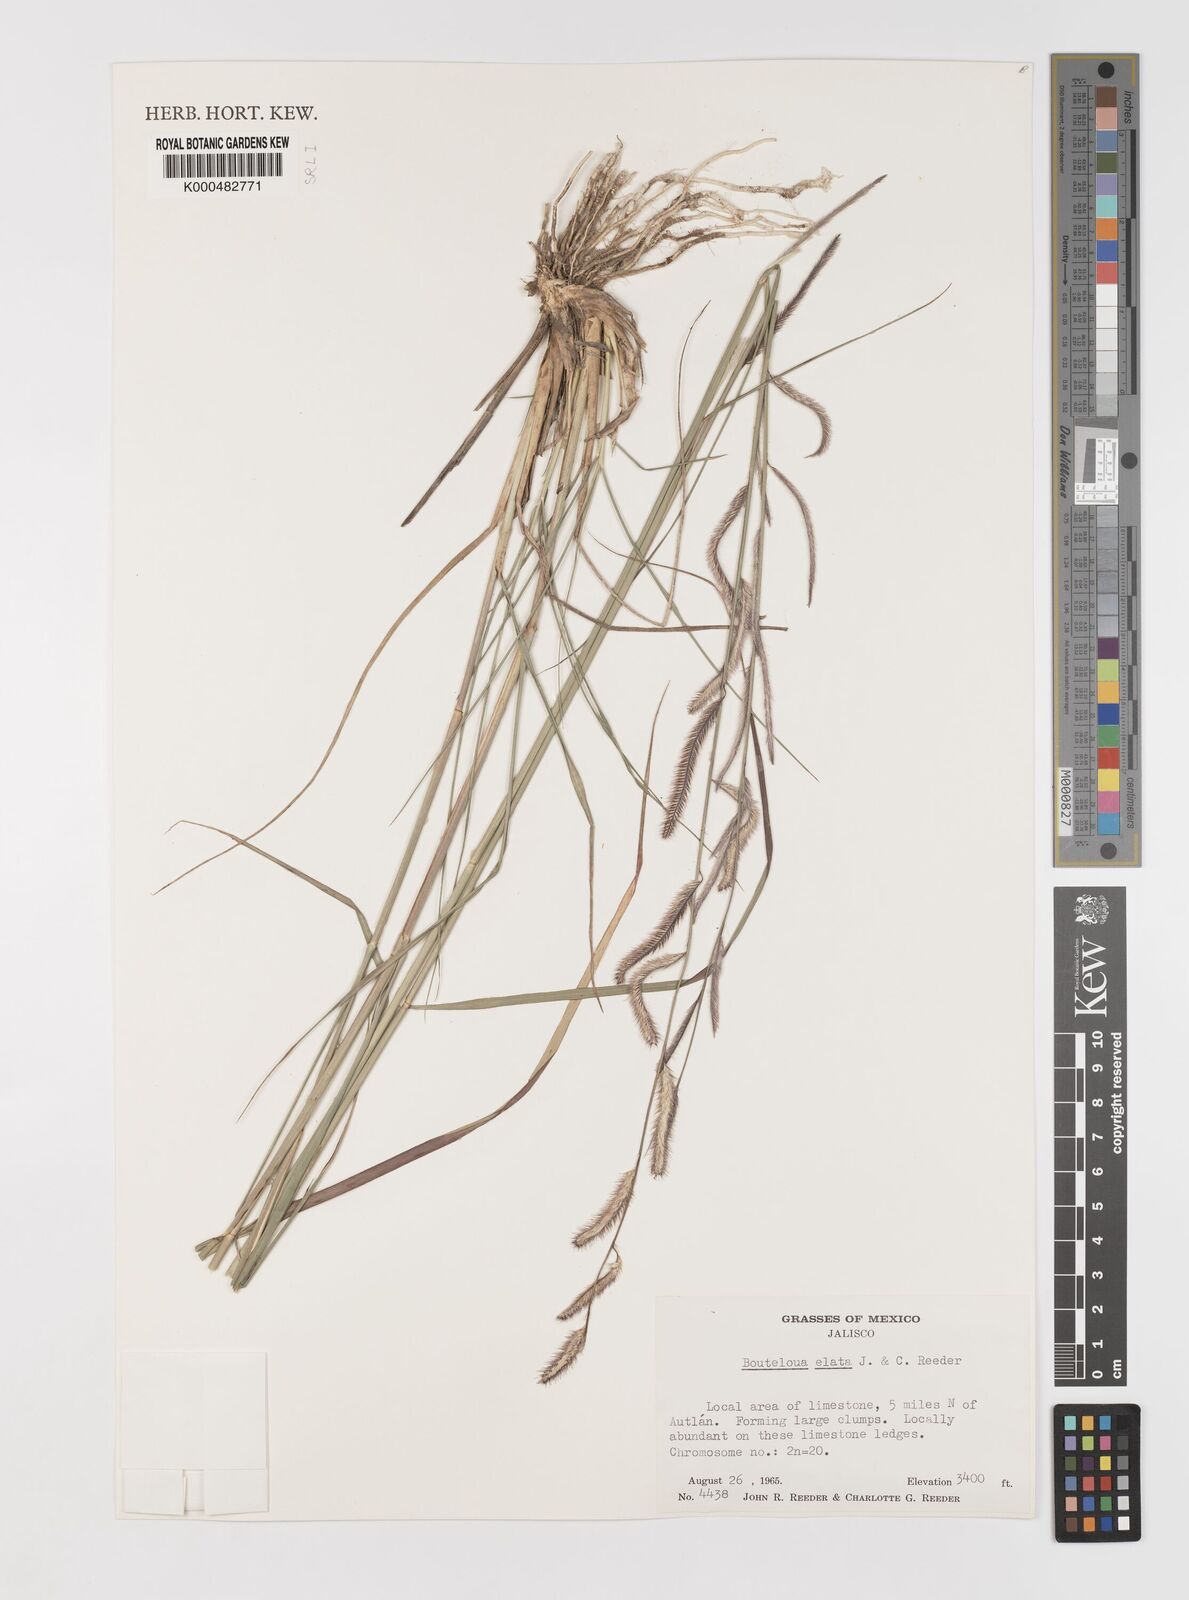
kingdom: Plantae
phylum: Tracheophyta
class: Liliopsida
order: Poales
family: Poaceae
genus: Bouteloua
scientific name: Bouteloua elata
